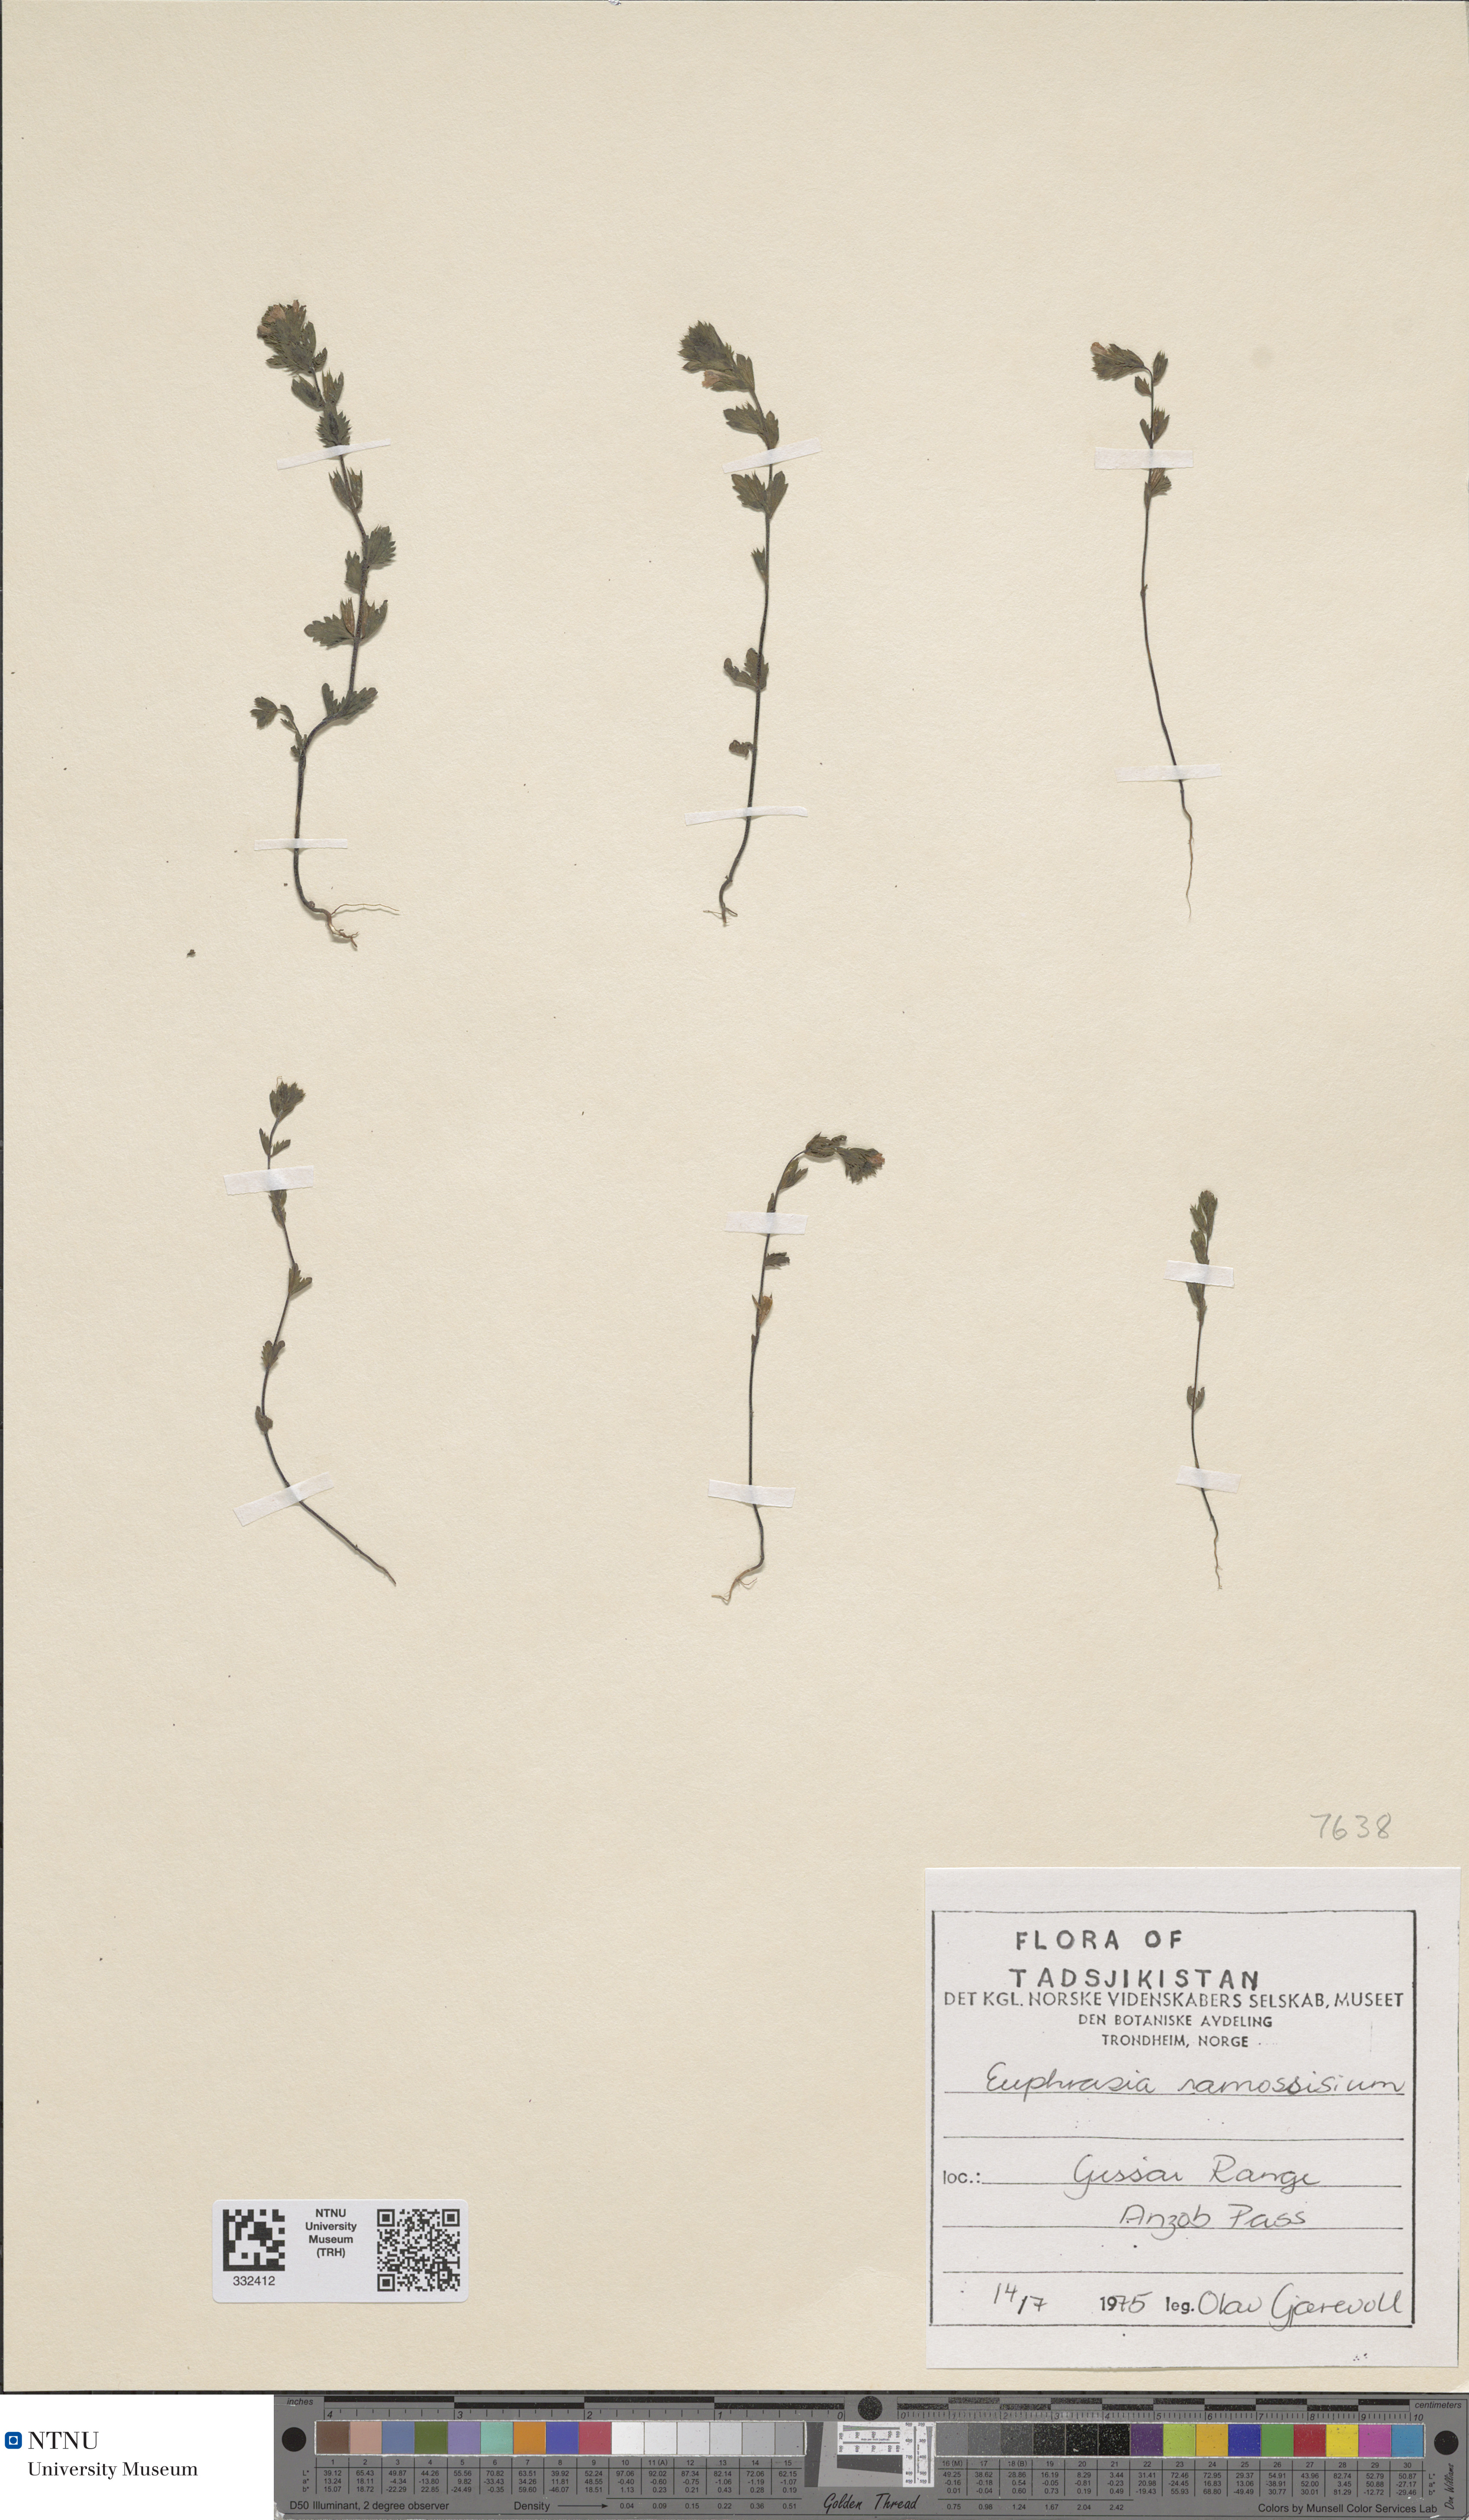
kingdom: Plantae
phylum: Tracheophyta
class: Magnoliopsida
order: Lamiales
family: Orobanchaceae
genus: Euphrasia
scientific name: Euphrasia tricuspidata
